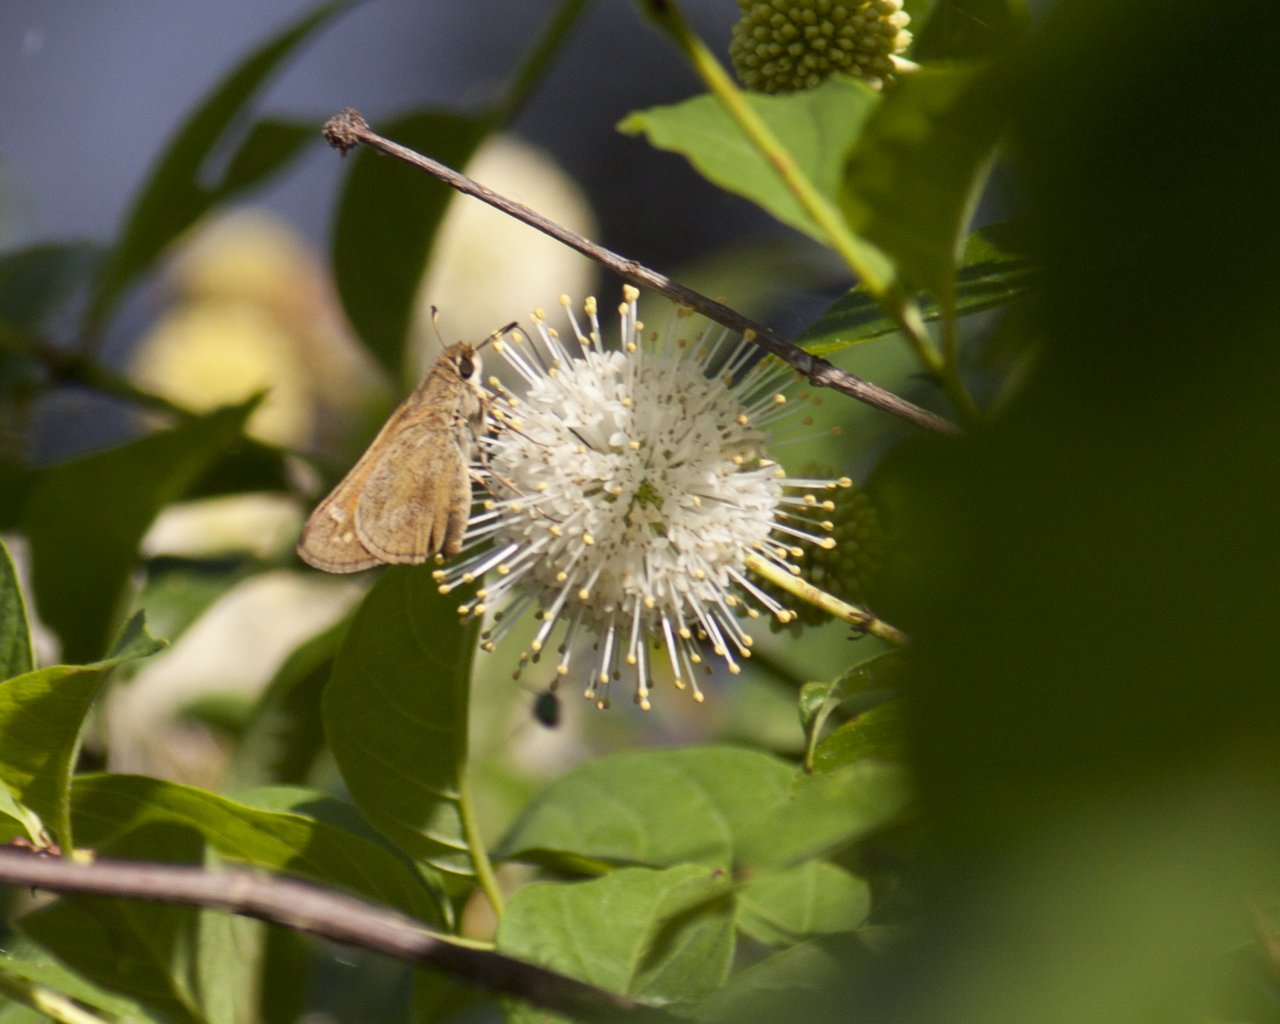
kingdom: Animalia
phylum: Arthropoda
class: Insecta
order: Lepidoptera
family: Hesperiidae
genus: Atalopedes
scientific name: Atalopedes campestris
